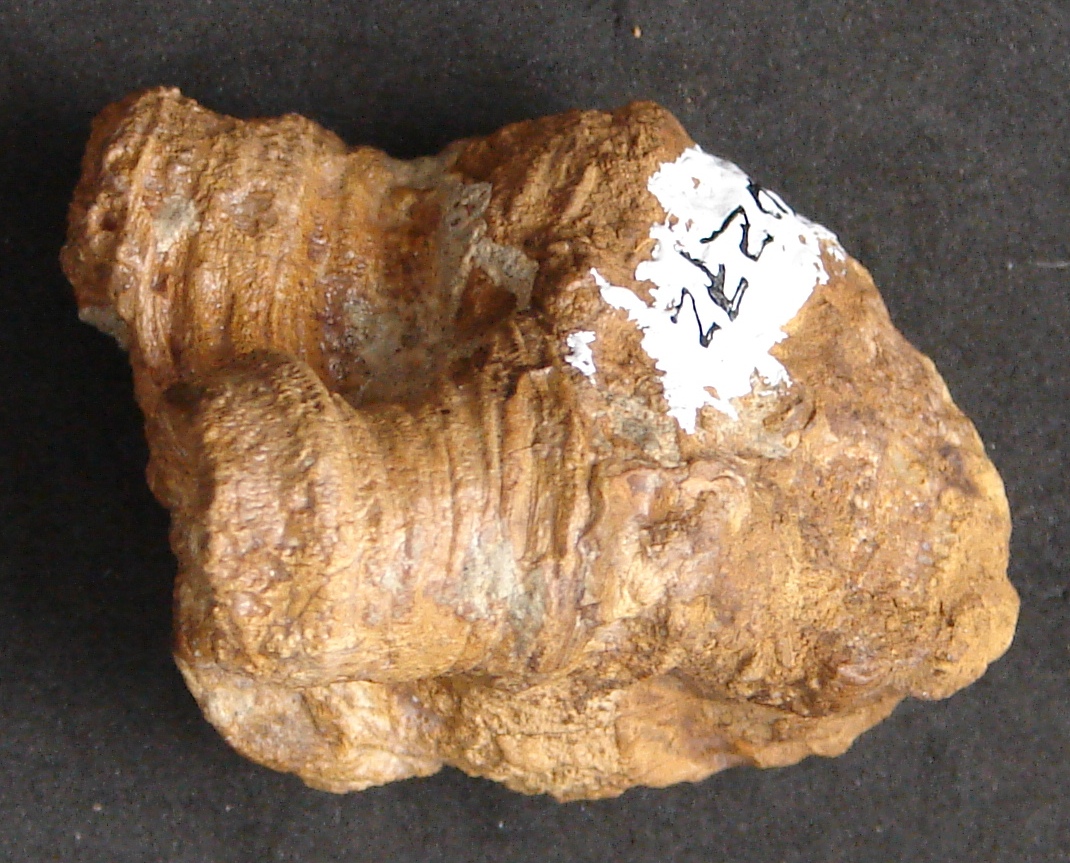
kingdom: Animalia
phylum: Cnidaria
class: Anthozoa
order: Scleractinia
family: Thecosmiliidae
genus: Isastrea
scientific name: Isastrea
